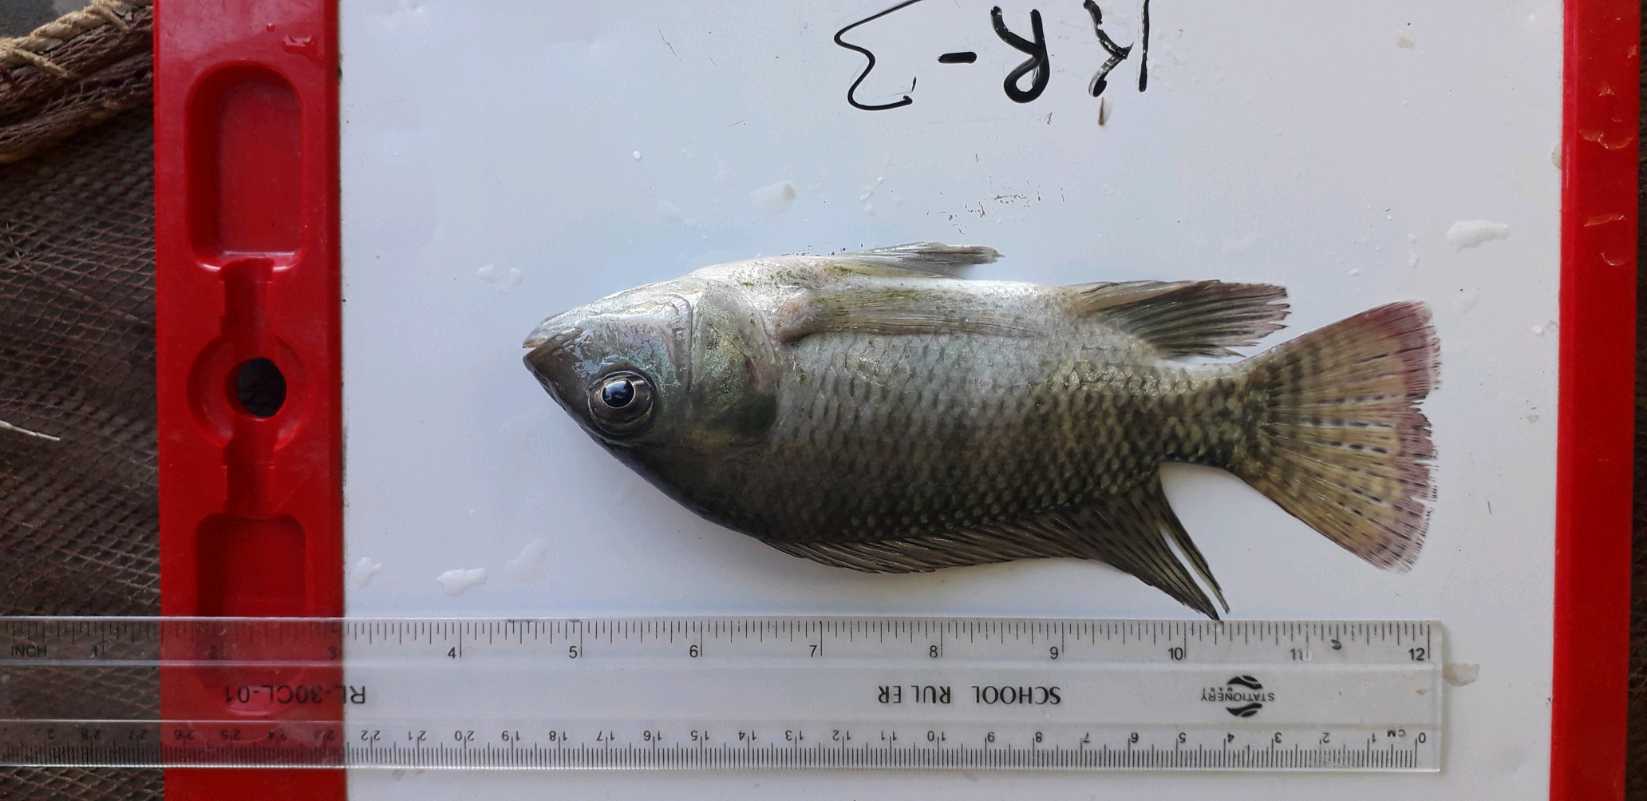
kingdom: Animalia
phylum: Chordata
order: Perciformes
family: Cichlidae
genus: Oreochromis
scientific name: Oreochromis niloticus
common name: Nile tilapia
